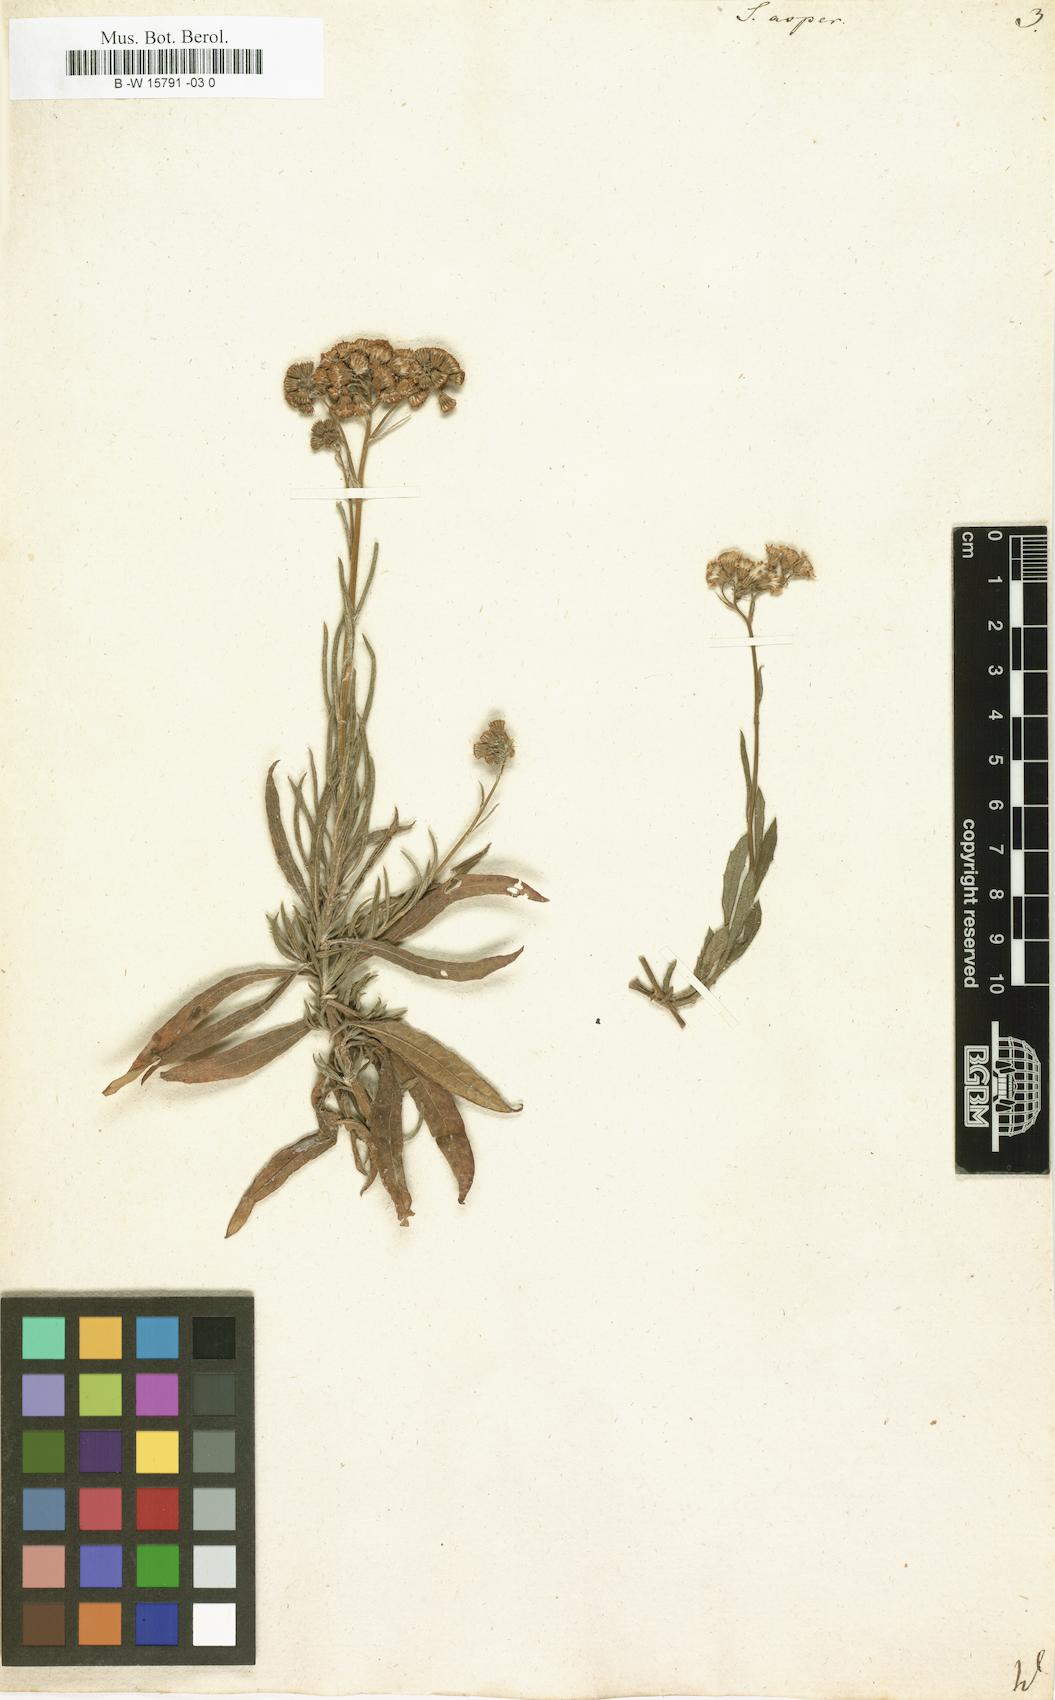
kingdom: Plantae
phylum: Tracheophyta
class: Magnoliopsida
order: Asterales
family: Asteraceae
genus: Senecio
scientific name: Senecio
